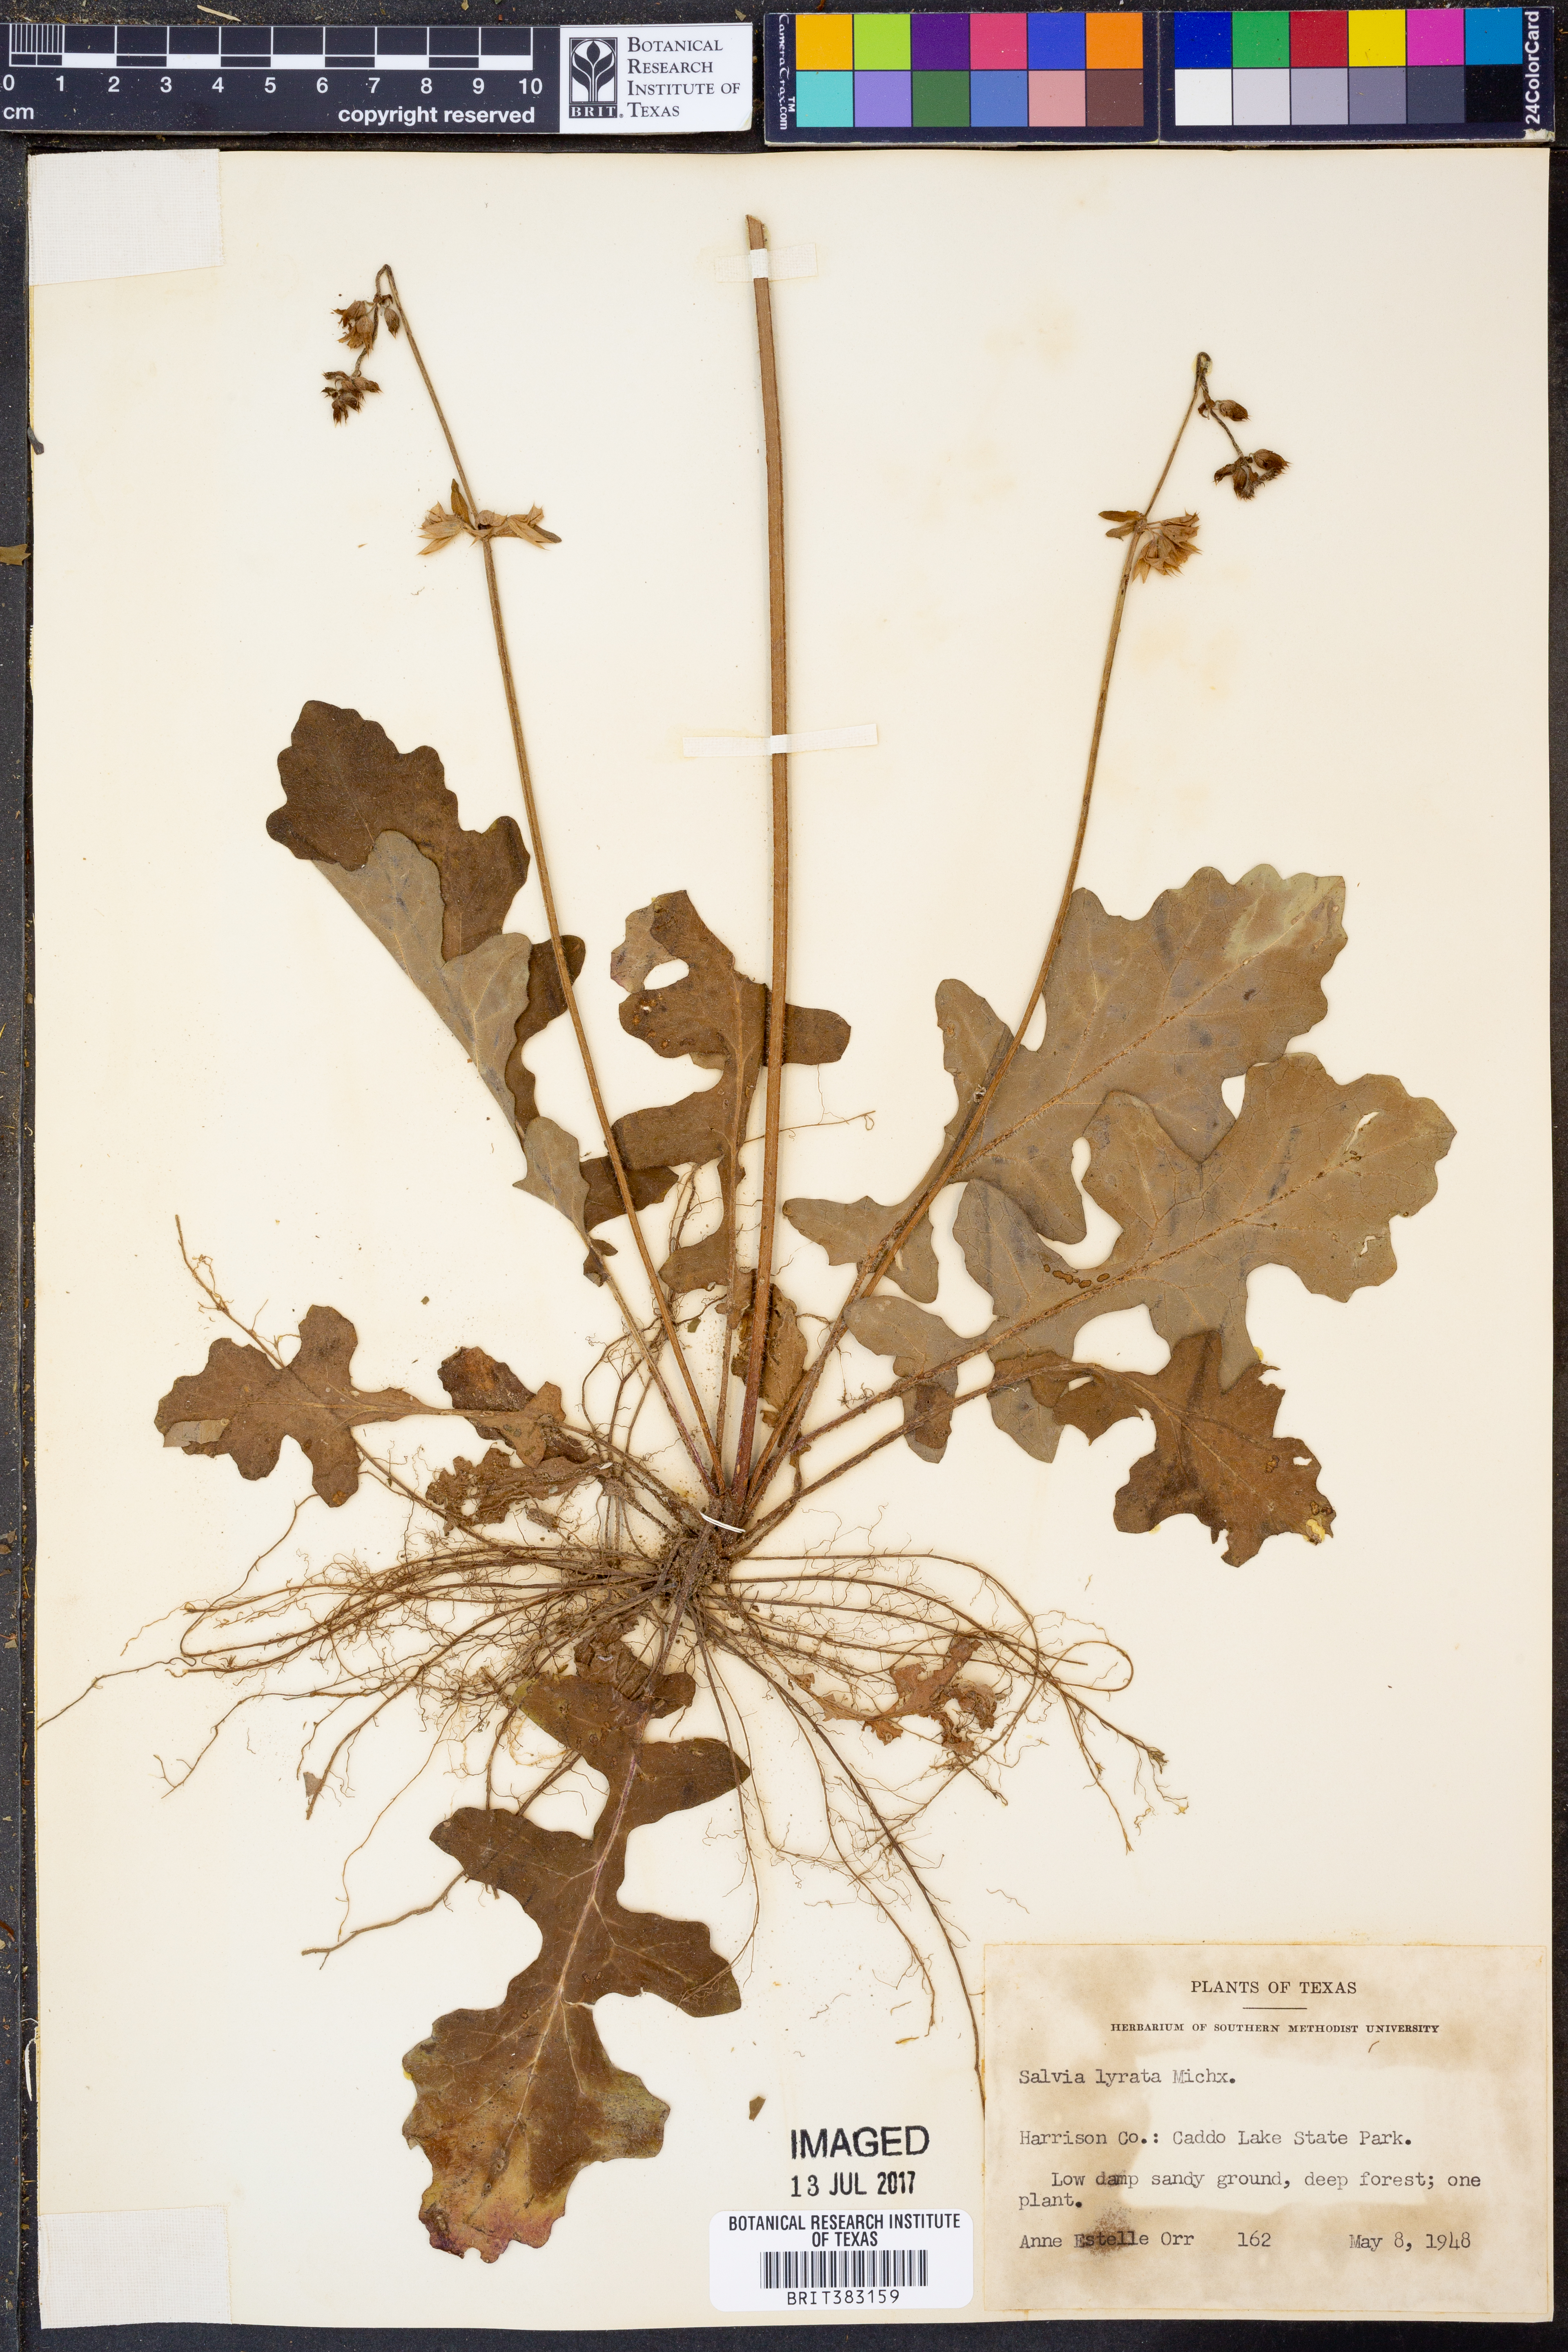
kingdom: Plantae
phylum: Tracheophyta
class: Magnoliopsida
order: Lamiales
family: Lamiaceae
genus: Salvia
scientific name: Salvia lyrata
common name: Cancerweed
